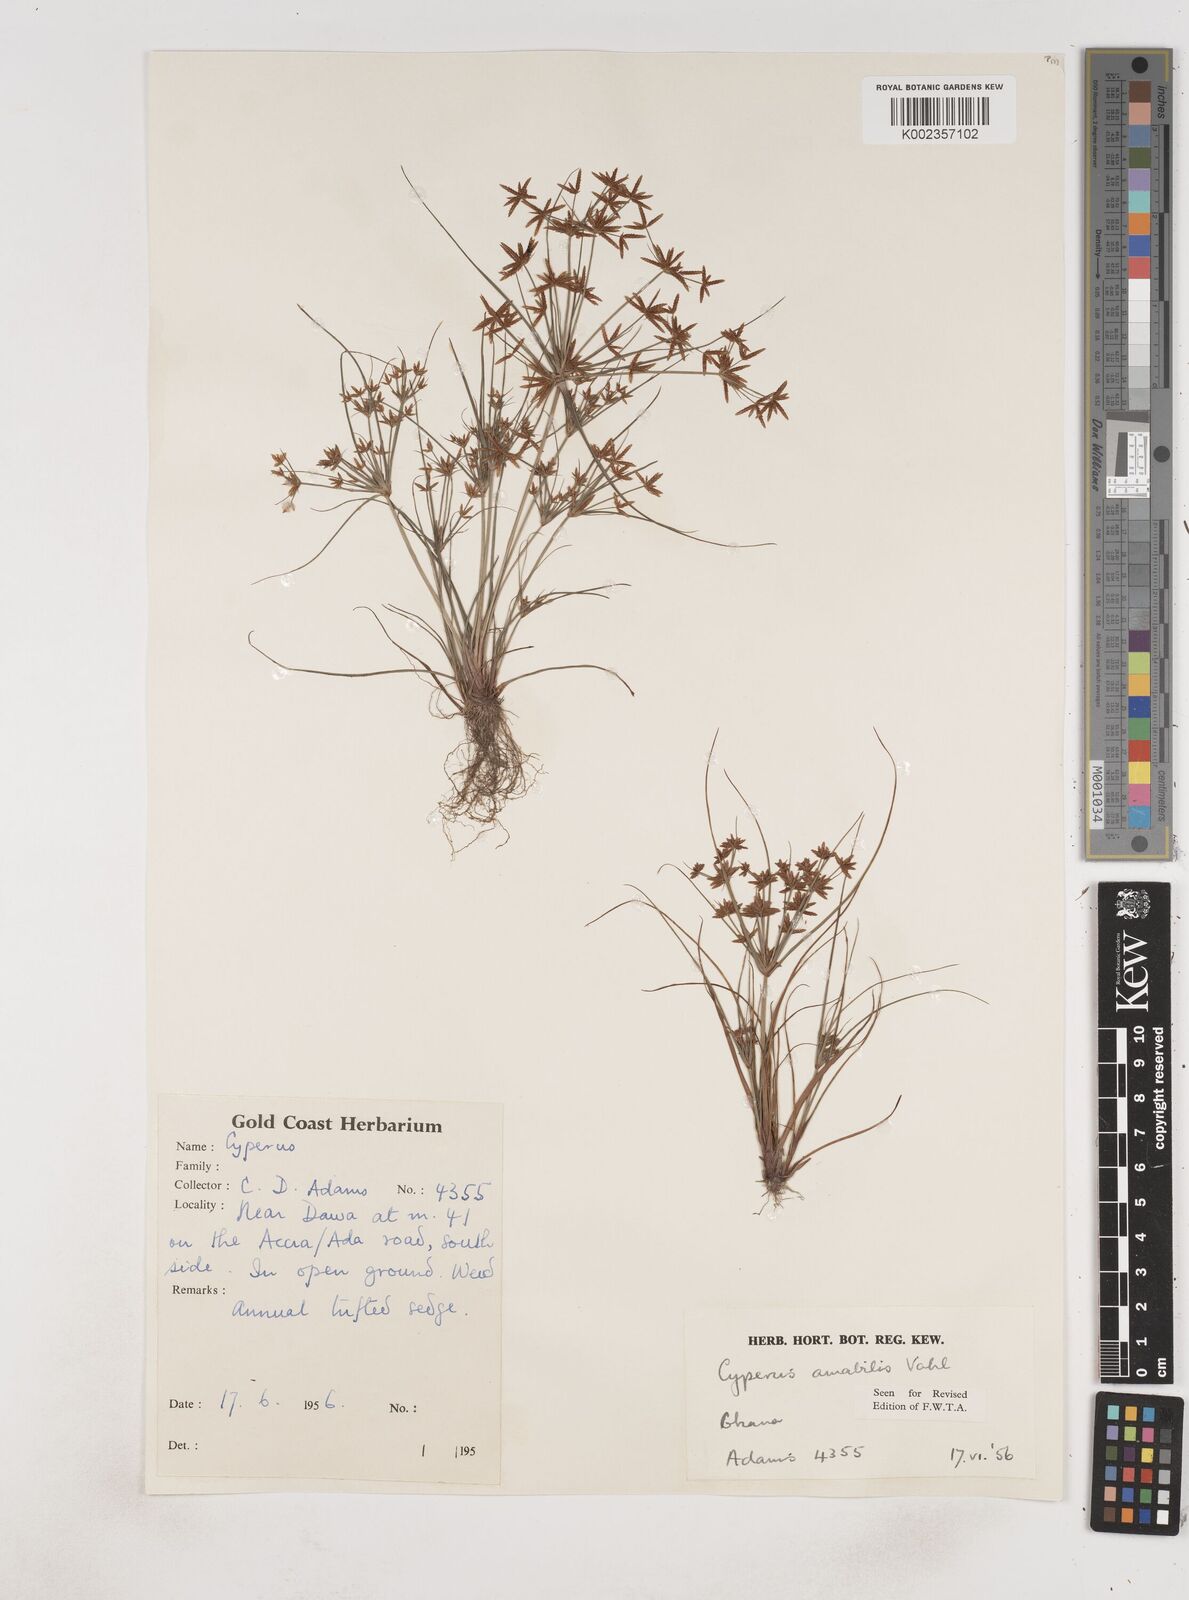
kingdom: Plantae
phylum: Tracheophyta
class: Liliopsida
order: Poales
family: Cyperaceae
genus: Cyperus
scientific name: Cyperus amabilis
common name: Foothill flat sedge
